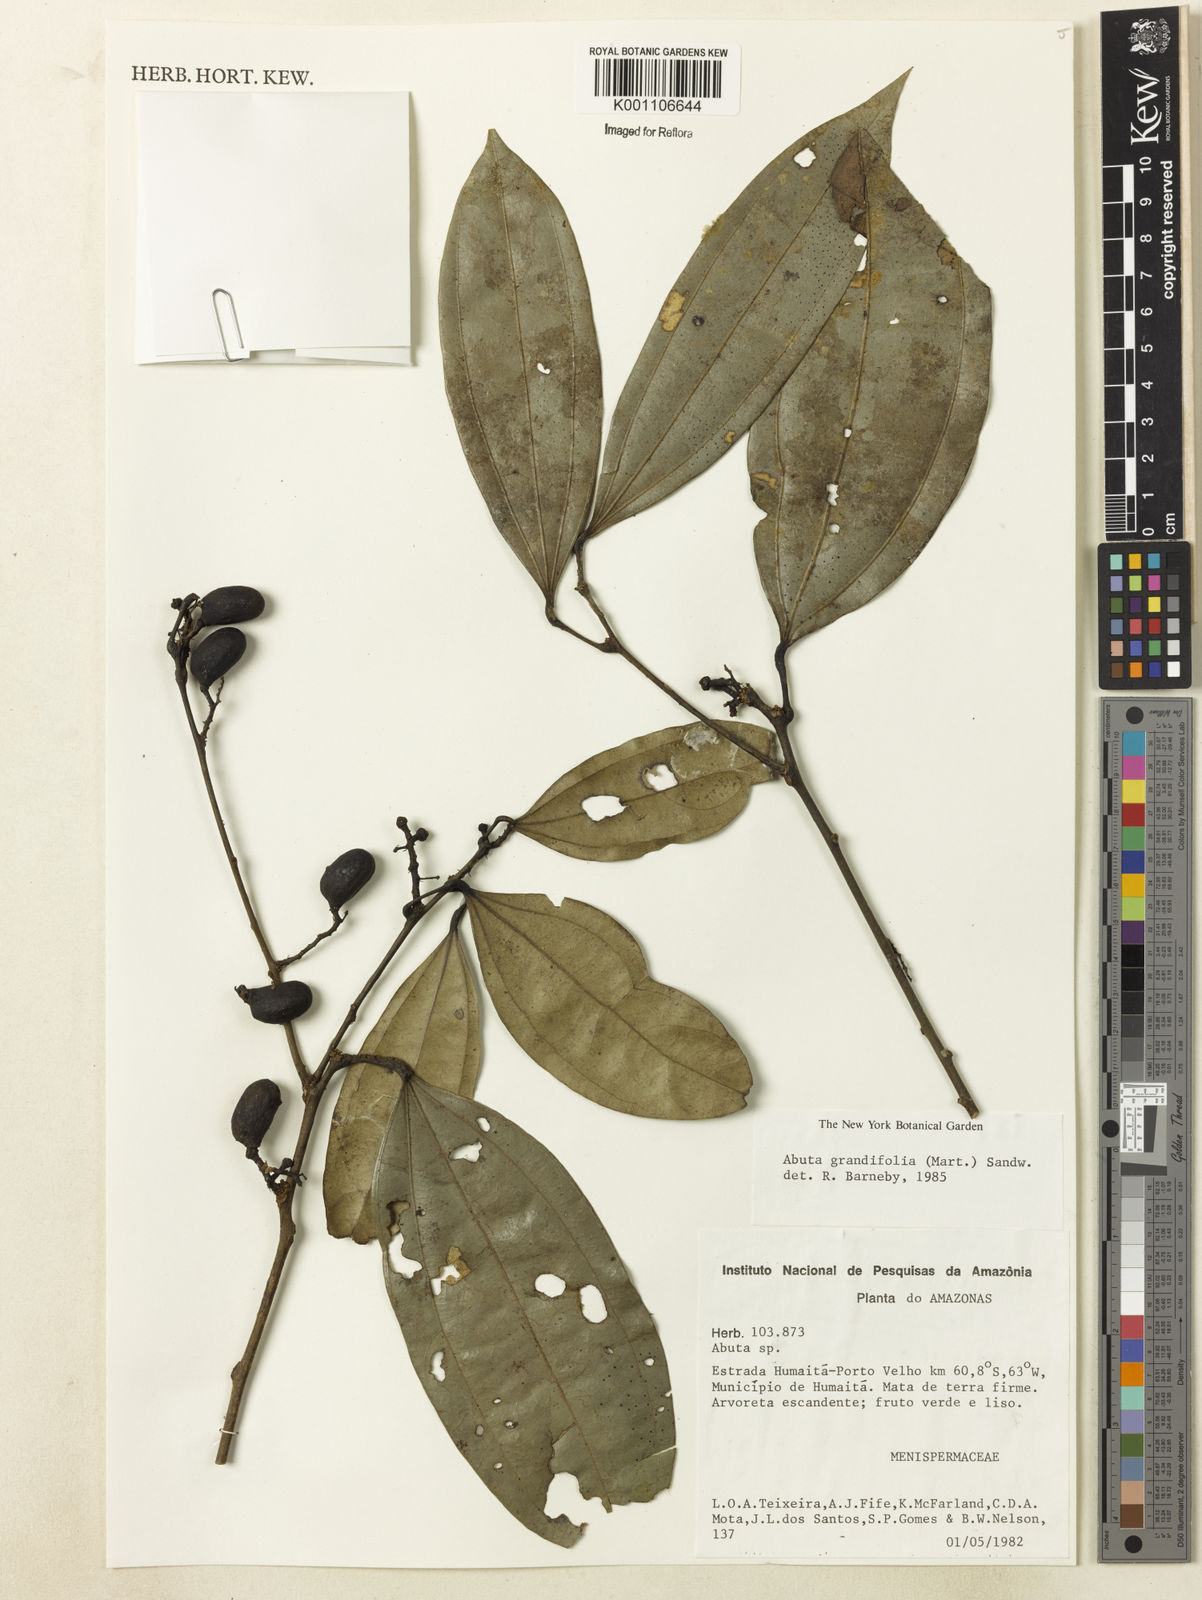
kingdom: Plantae
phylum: Tracheophyta
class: Magnoliopsida
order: Ranunculales
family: Menispermaceae
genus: Abuta
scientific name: Abuta grandifolia
